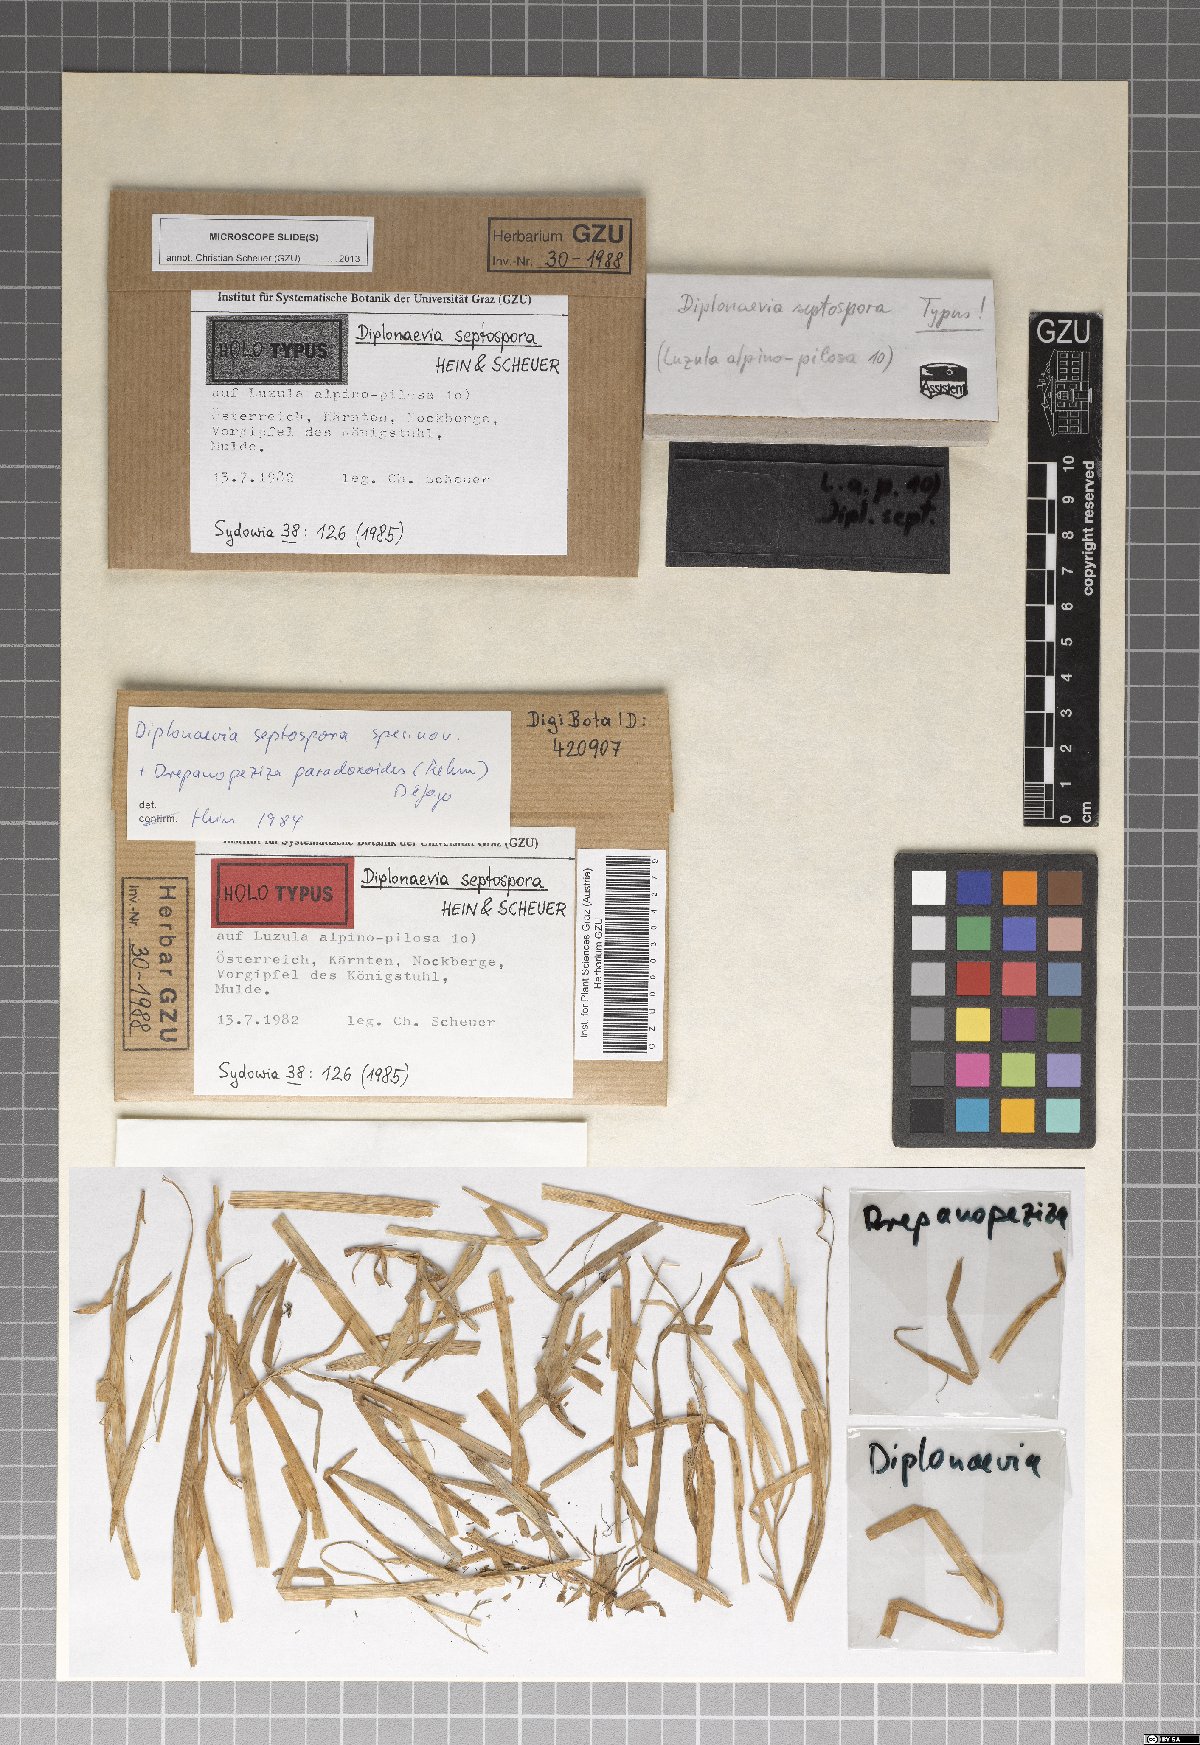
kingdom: Fungi
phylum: Ascomycota
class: Leotiomycetes
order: Helotiales
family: Calloriaceae
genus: Diplonaevia
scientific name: Diplonaevia septospora
